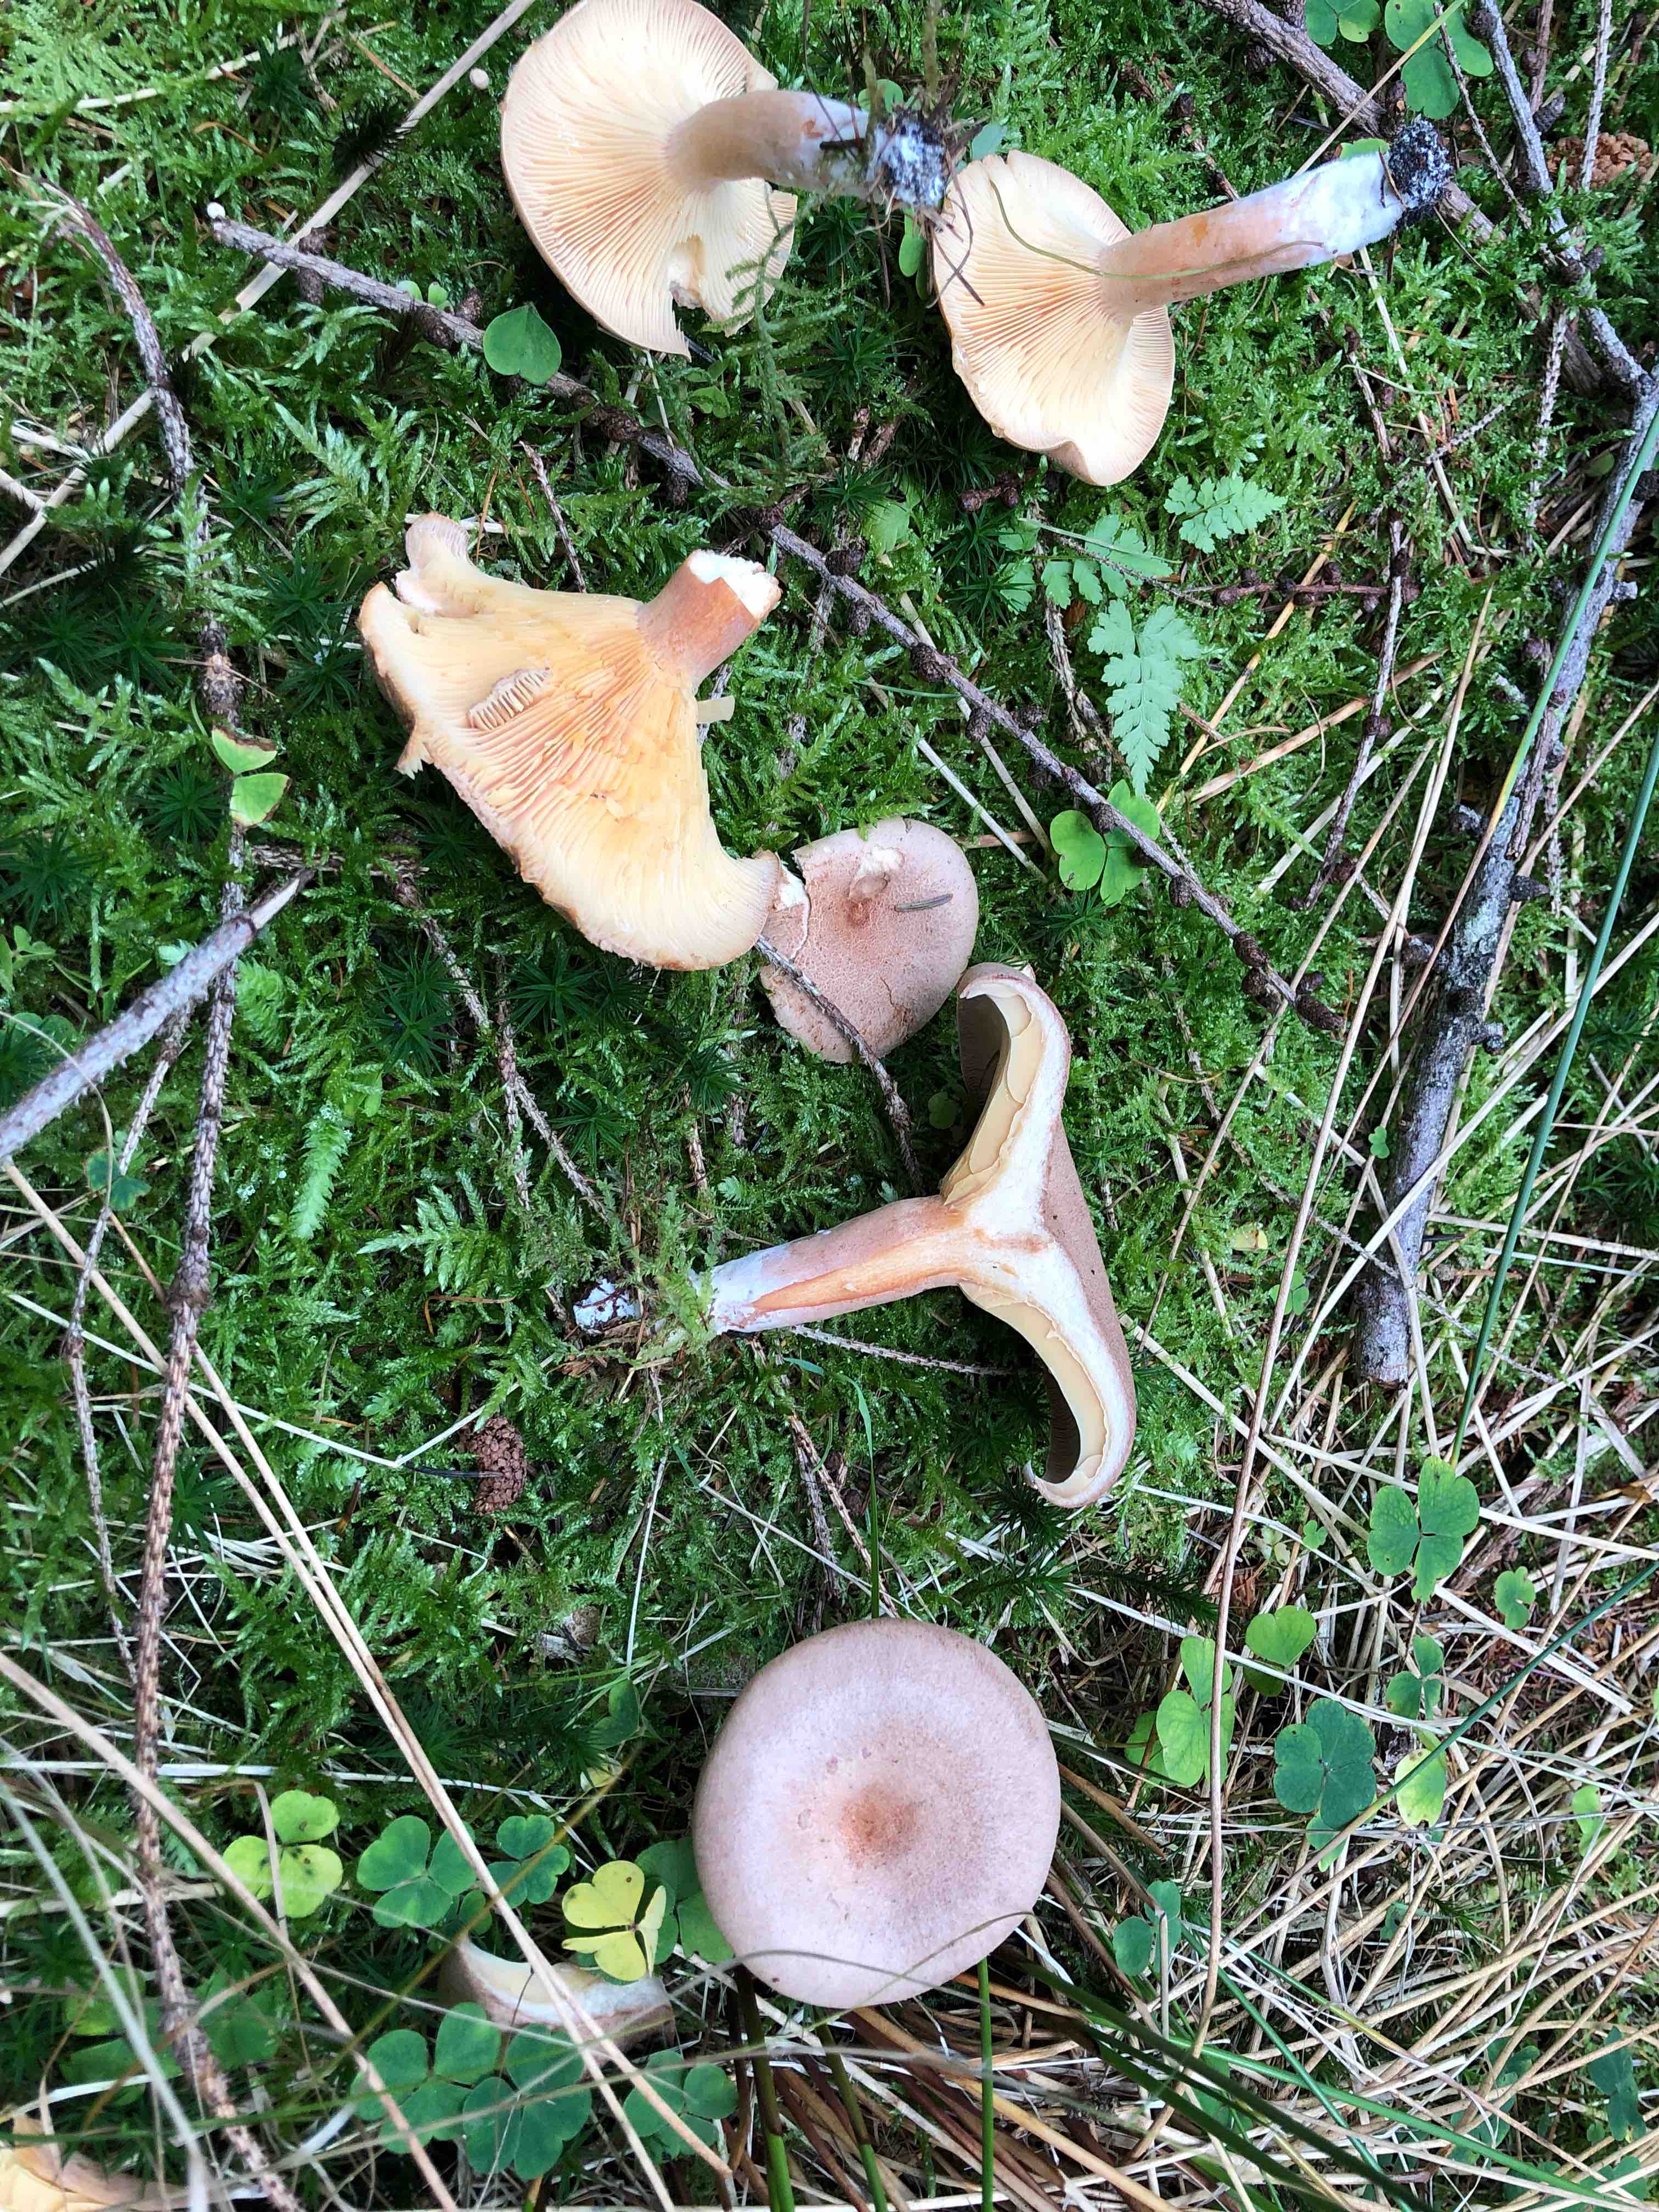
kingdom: Fungi
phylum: Basidiomycota
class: Agaricomycetes
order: Russulales
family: Russulaceae
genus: Lactarius
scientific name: Lactarius helvus
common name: mose-mælkehat
